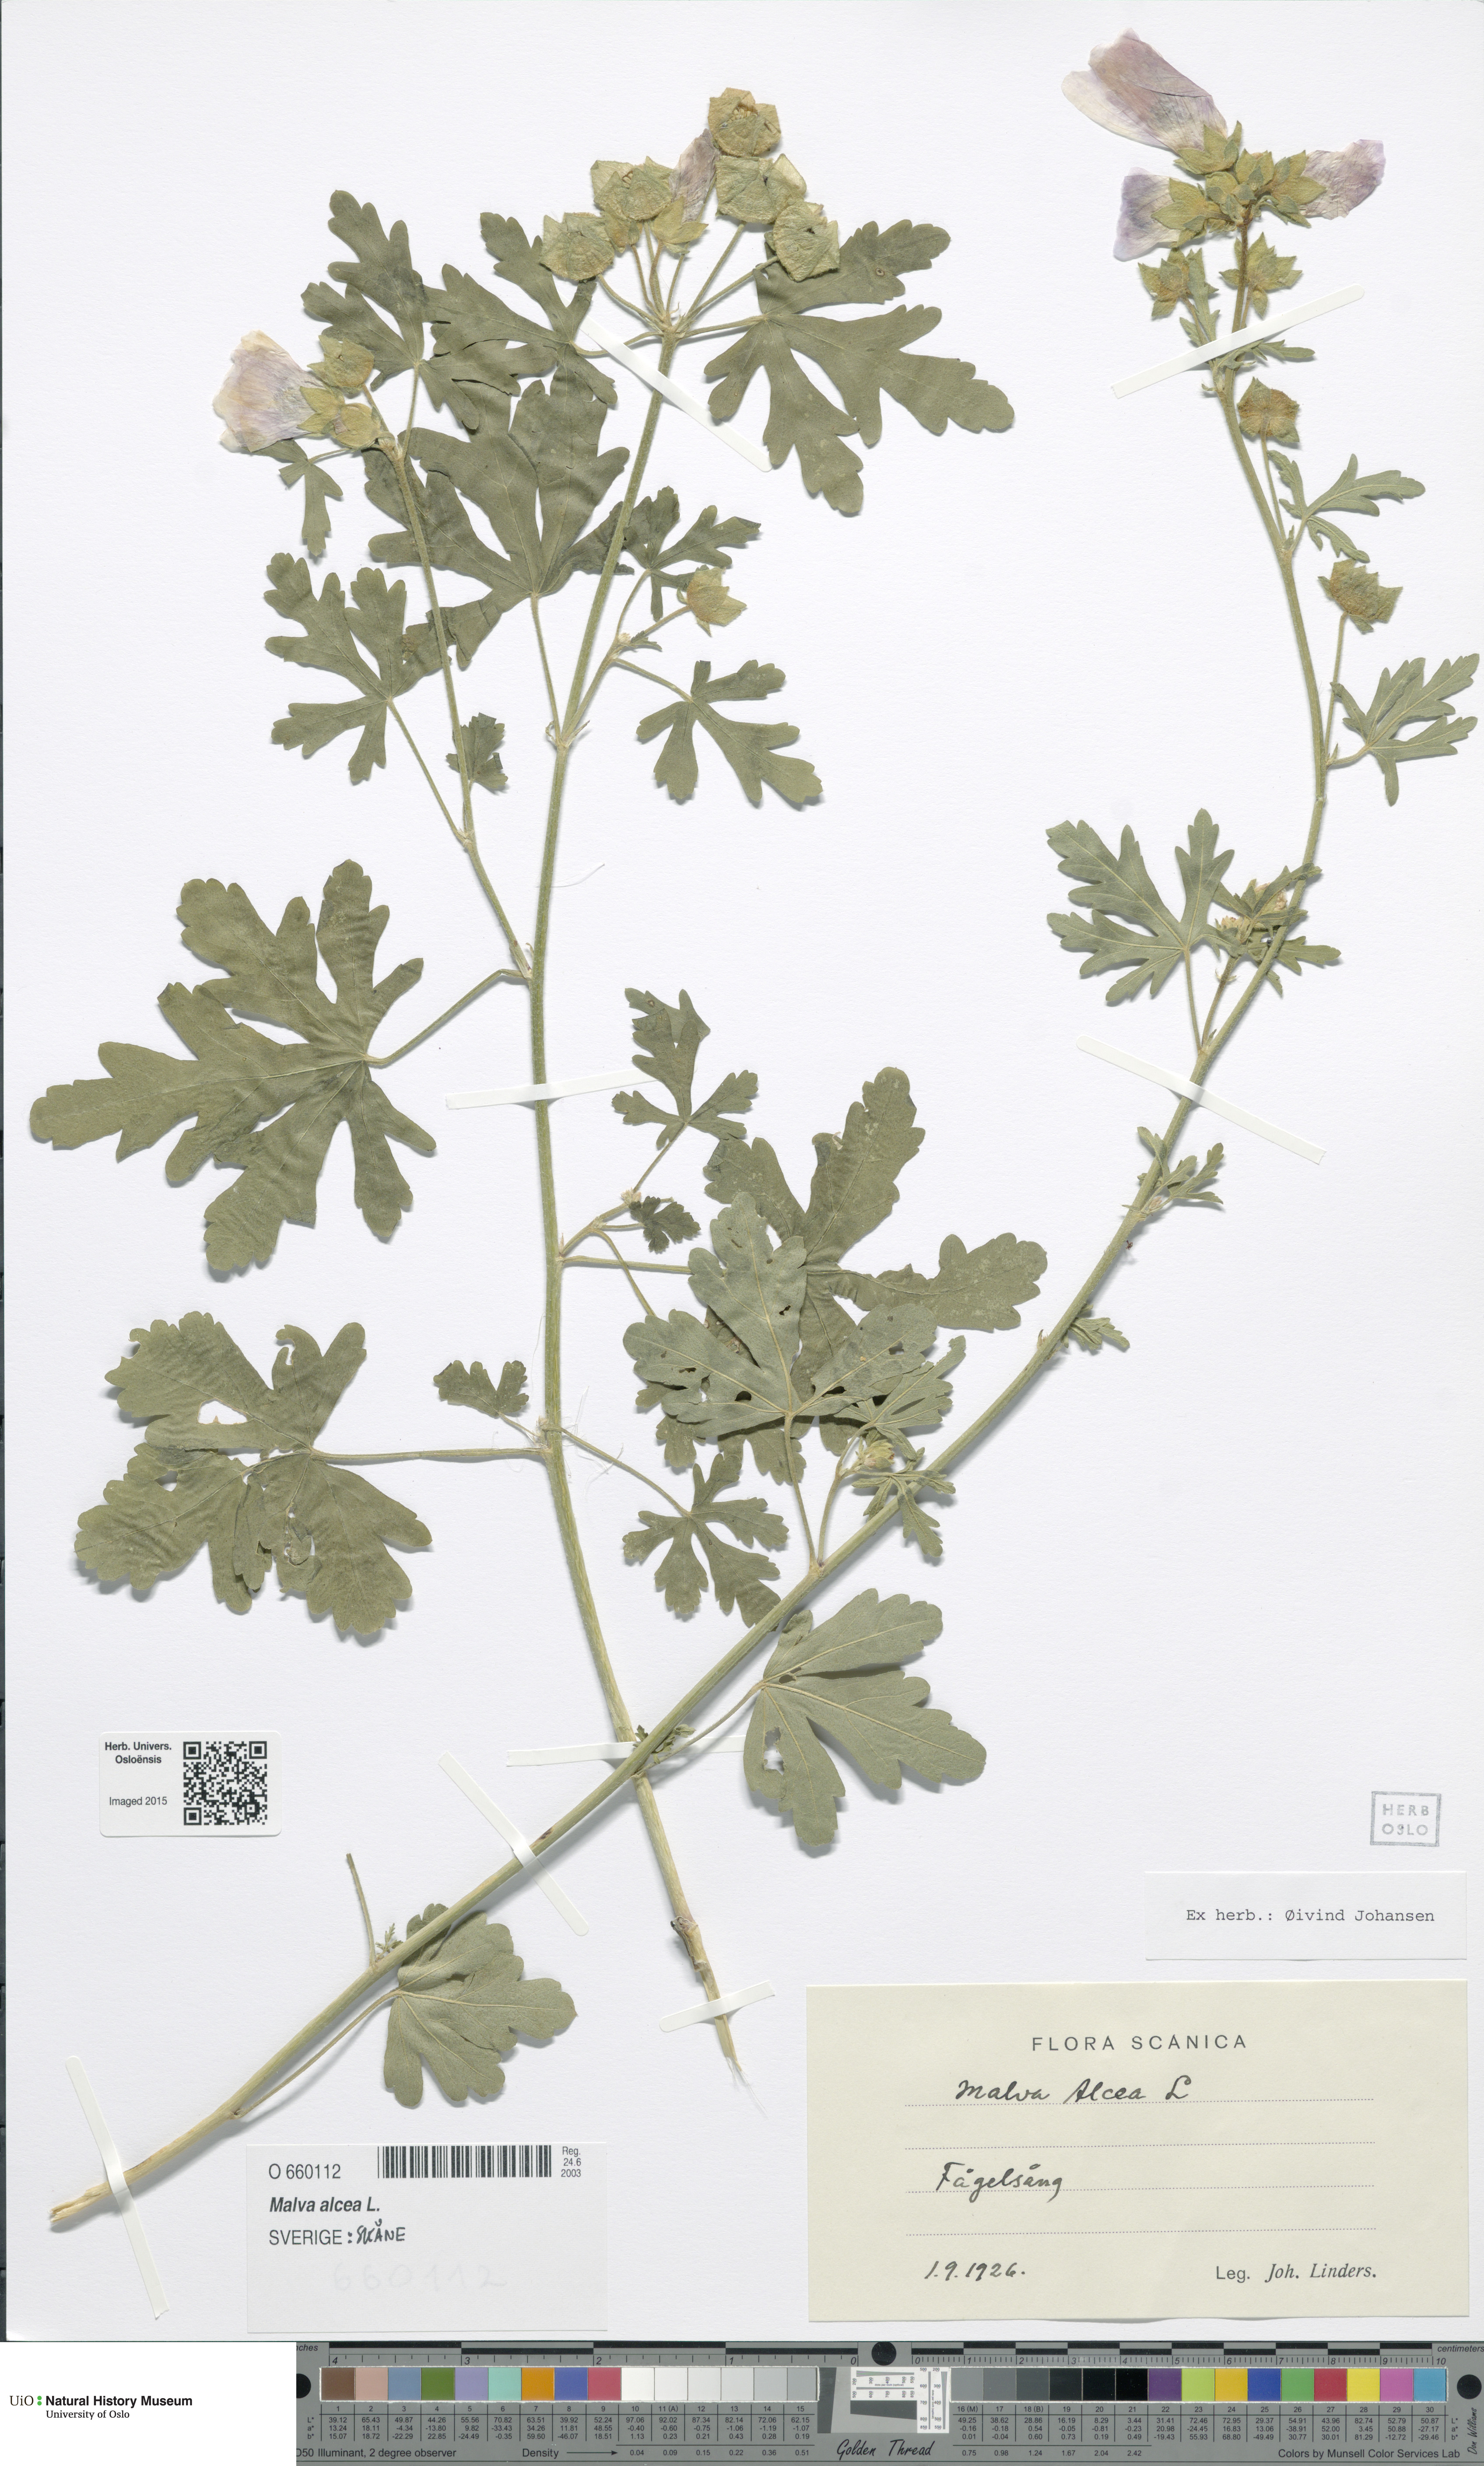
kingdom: Plantae
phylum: Tracheophyta
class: Magnoliopsida
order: Malvales
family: Malvaceae
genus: Malva
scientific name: Malva alcea
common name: Greater musk-mallow
